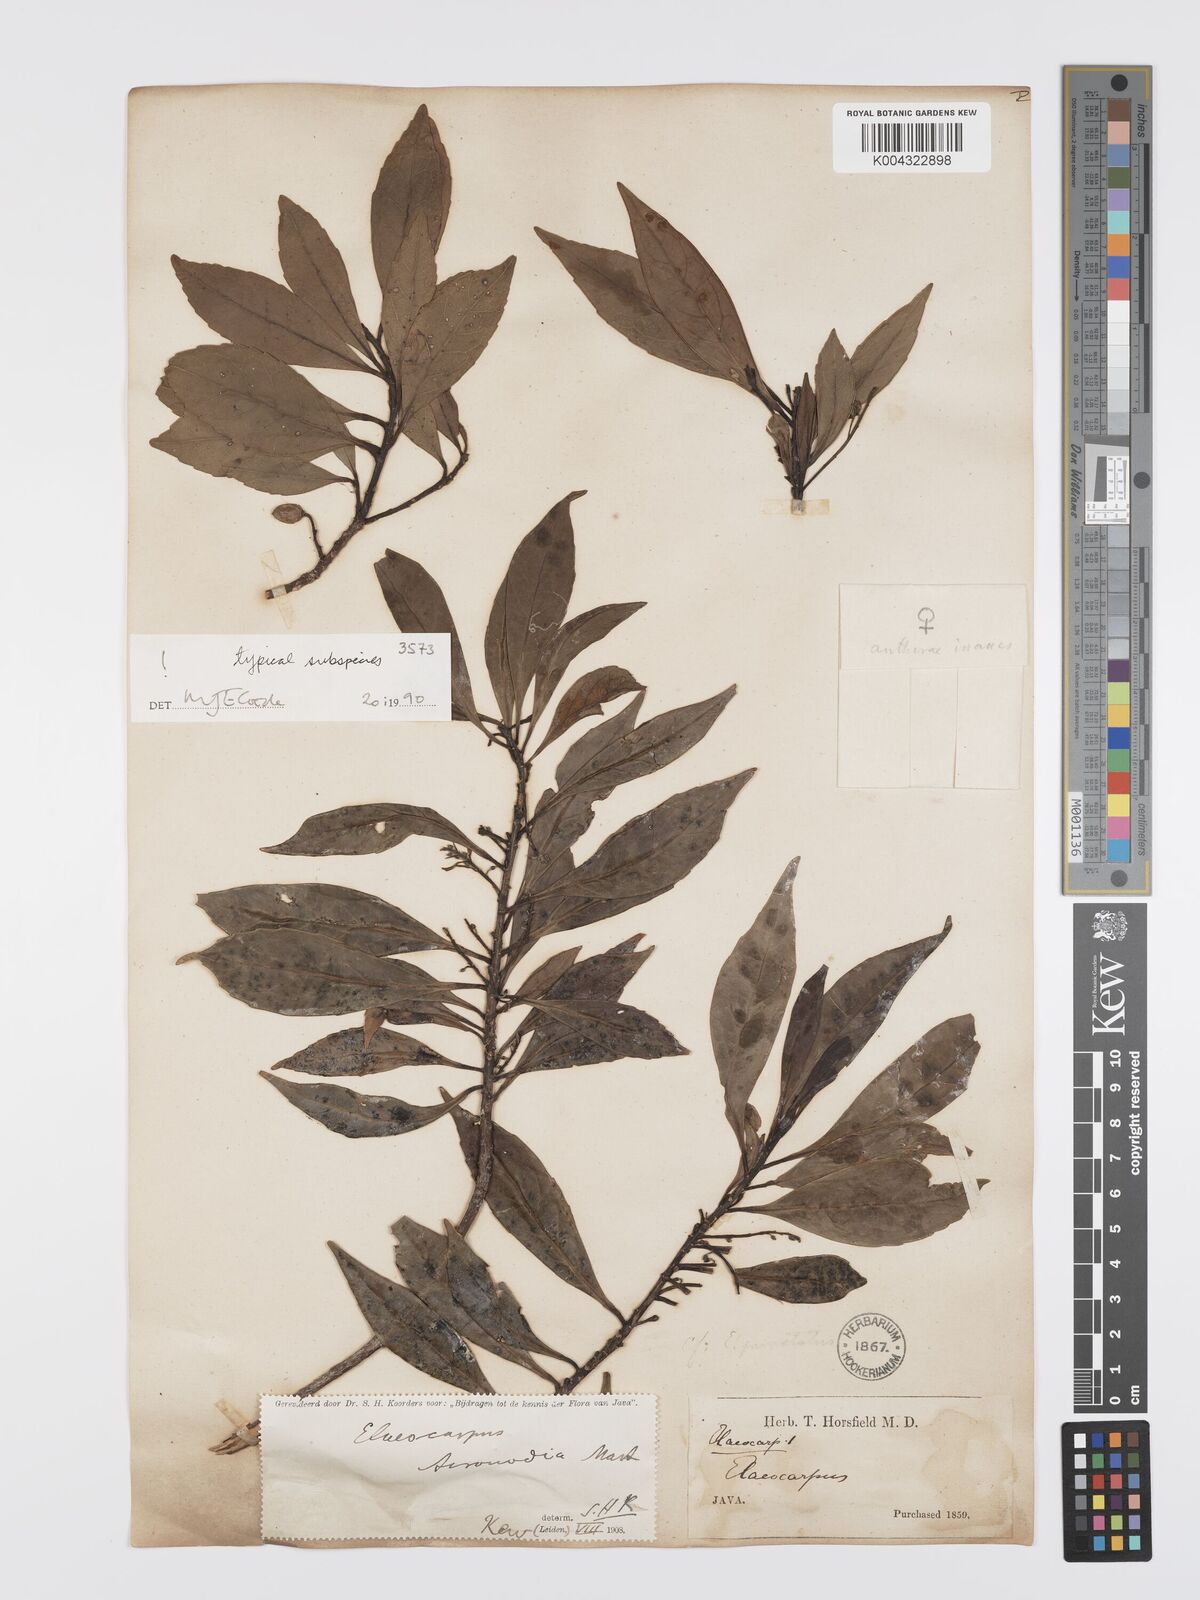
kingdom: Plantae
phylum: Tracheophyta
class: Magnoliopsida
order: Oxalidales
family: Elaeocarpaceae
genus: Elaeocarpus
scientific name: Elaeocarpus acronodia
